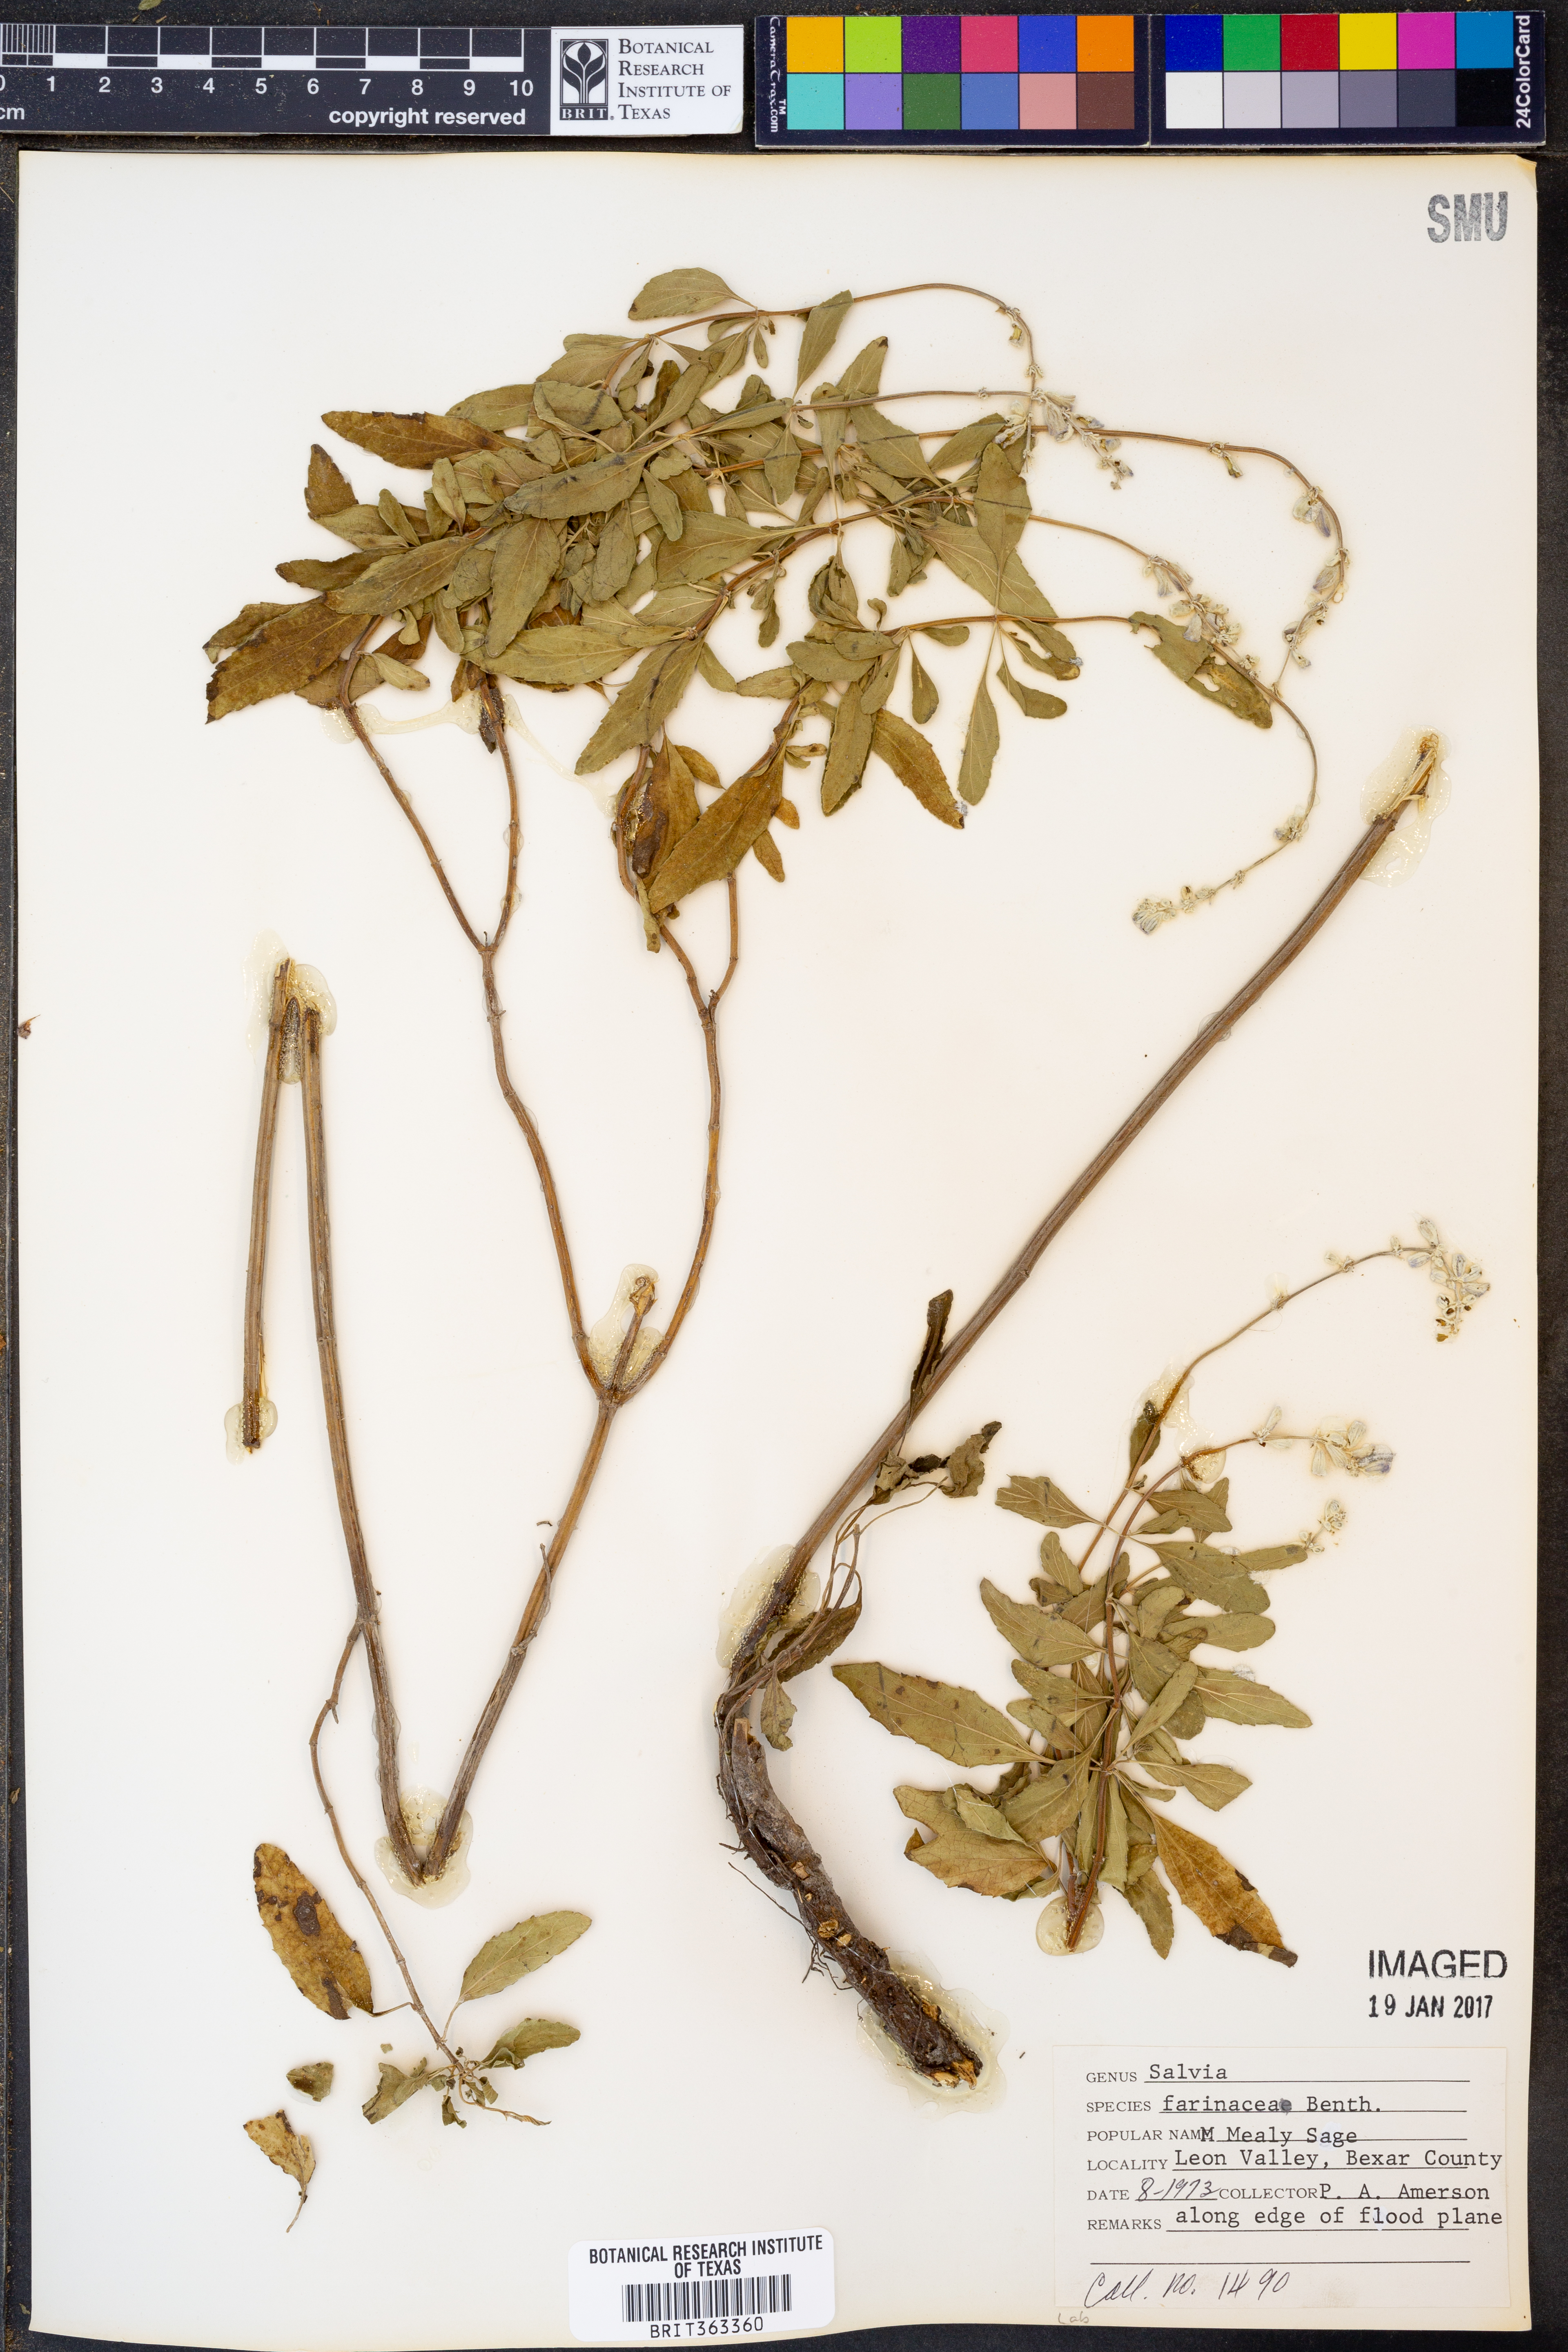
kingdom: Plantae
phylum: Tracheophyta
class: Magnoliopsida
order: Lamiales
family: Lamiaceae
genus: Salvia
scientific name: Salvia farinacea
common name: Mealy sage
